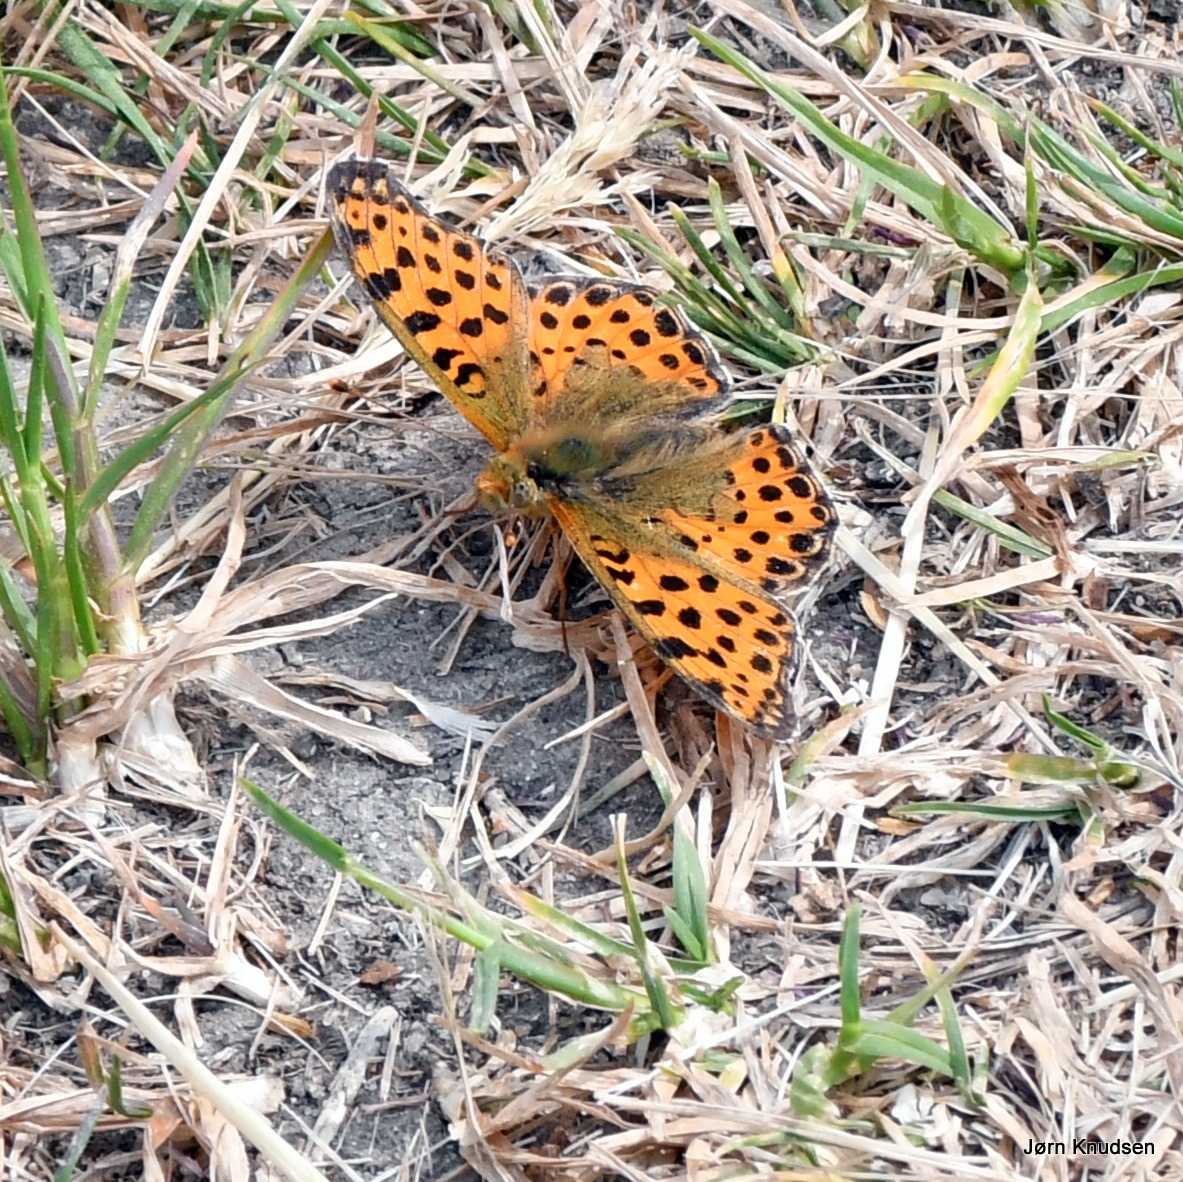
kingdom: Animalia
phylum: Arthropoda
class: Insecta
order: Lepidoptera
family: Nymphalidae
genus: Issoria
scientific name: Issoria lathonia
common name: Storplettet perlemorsommerfugl
